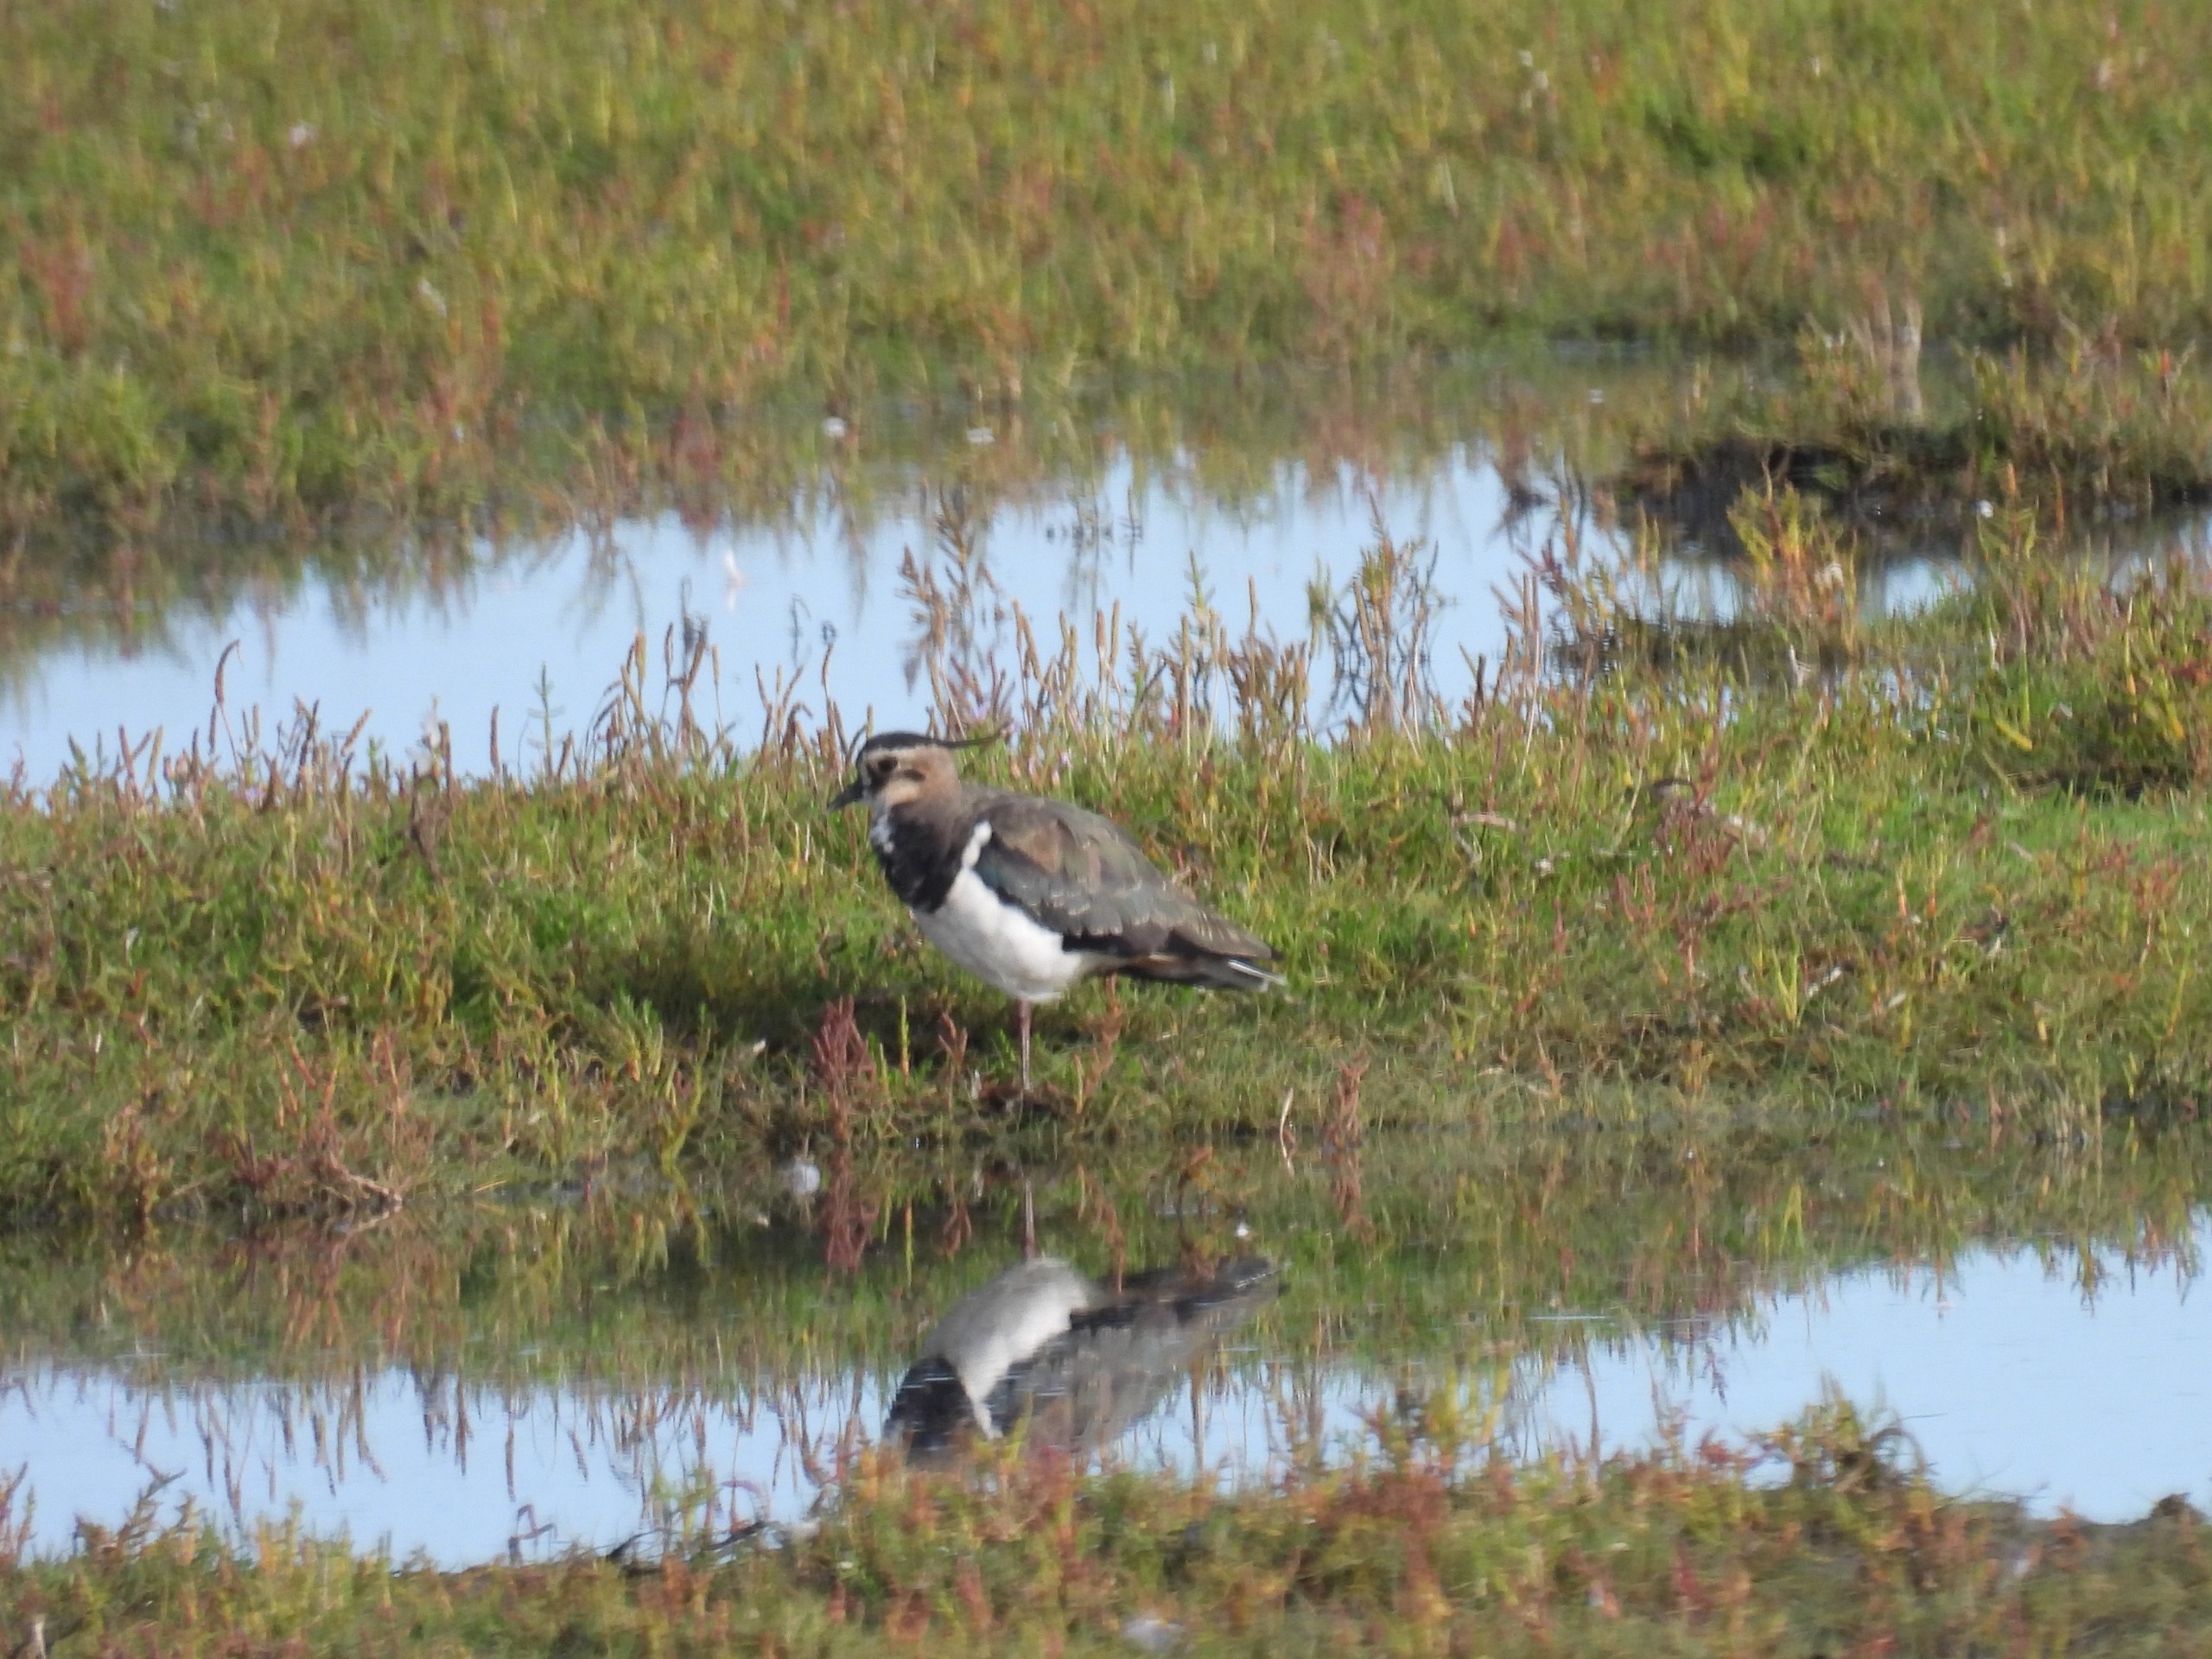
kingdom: Animalia
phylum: Chordata
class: Aves
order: Charadriiformes
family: Charadriidae
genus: Vanellus
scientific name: Vanellus vanellus
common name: Vibe
